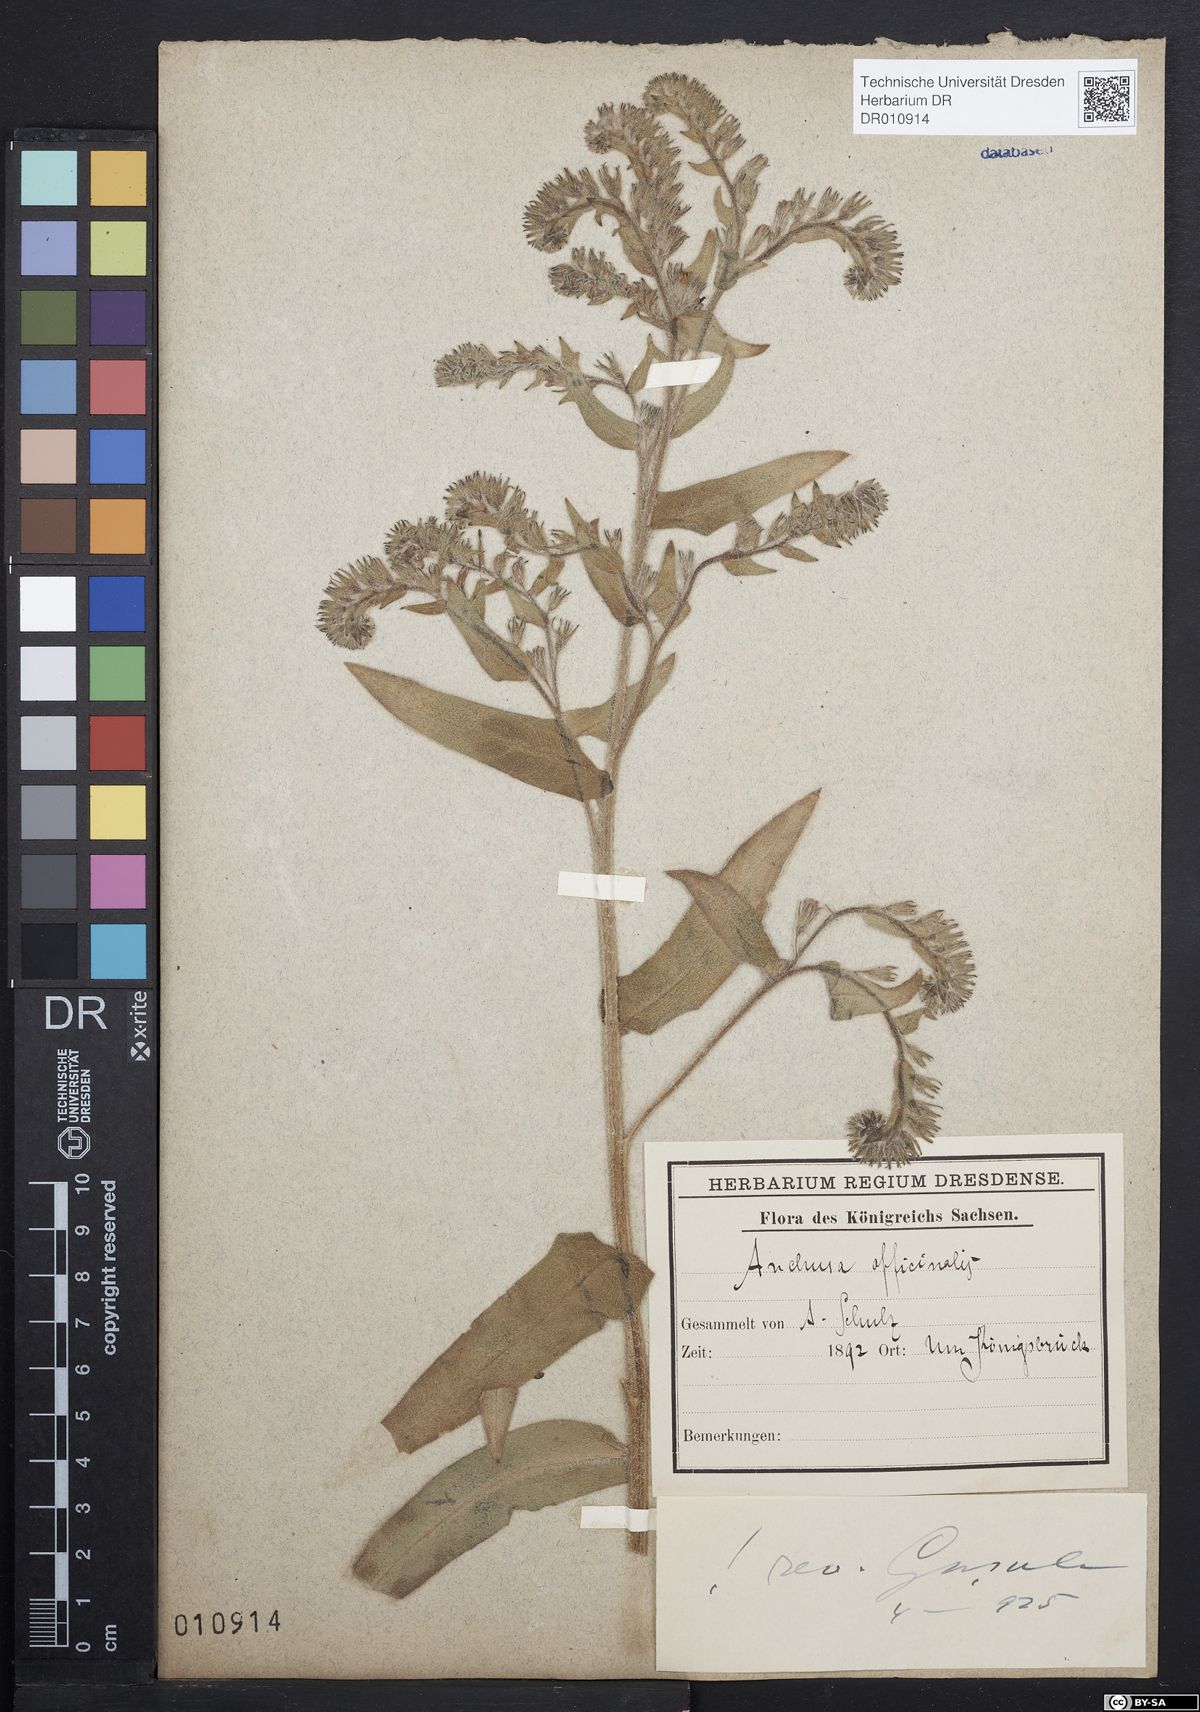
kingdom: Plantae
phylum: Tracheophyta
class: Magnoliopsida
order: Boraginales
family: Boraginaceae
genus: Anchusa
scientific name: Anchusa officinalis
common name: Alkanet
